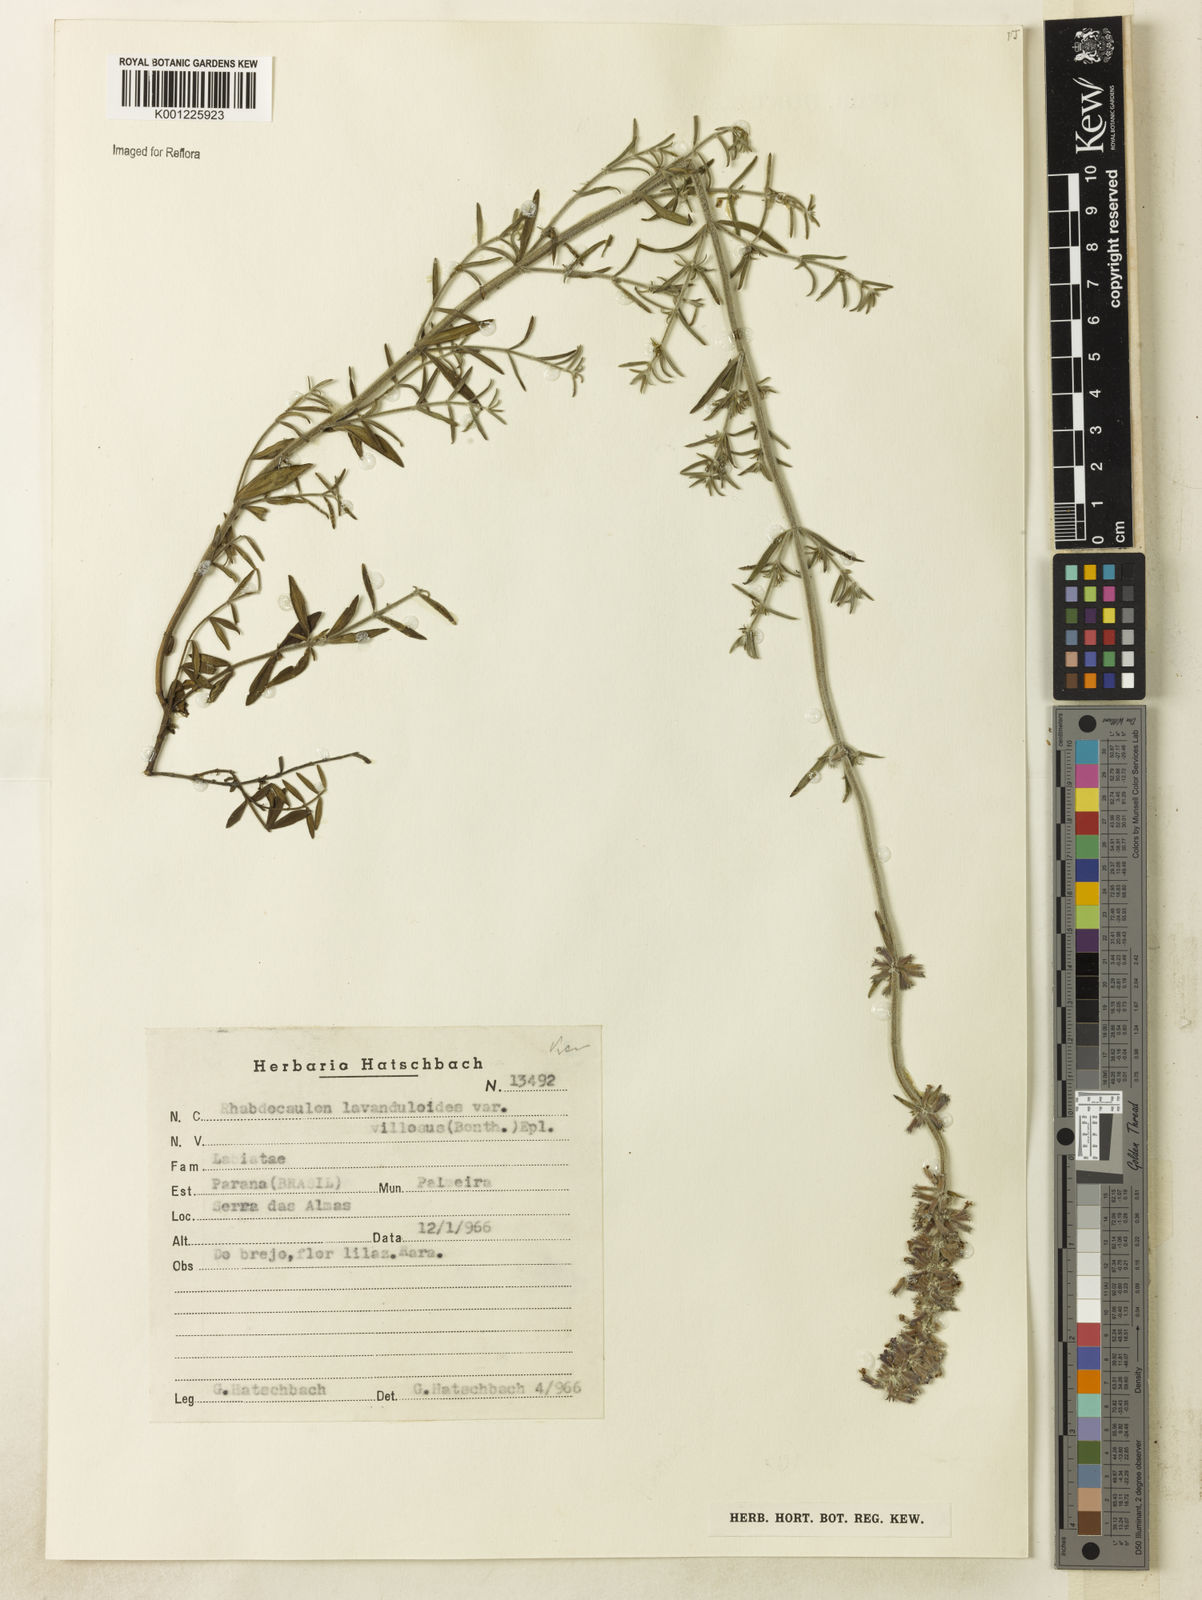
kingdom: Plantae
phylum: Tracheophyta
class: Magnoliopsida
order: Lamiales
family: Lamiaceae
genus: Rhabdocaulon
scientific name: Rhabdocaulon lavanduloides
